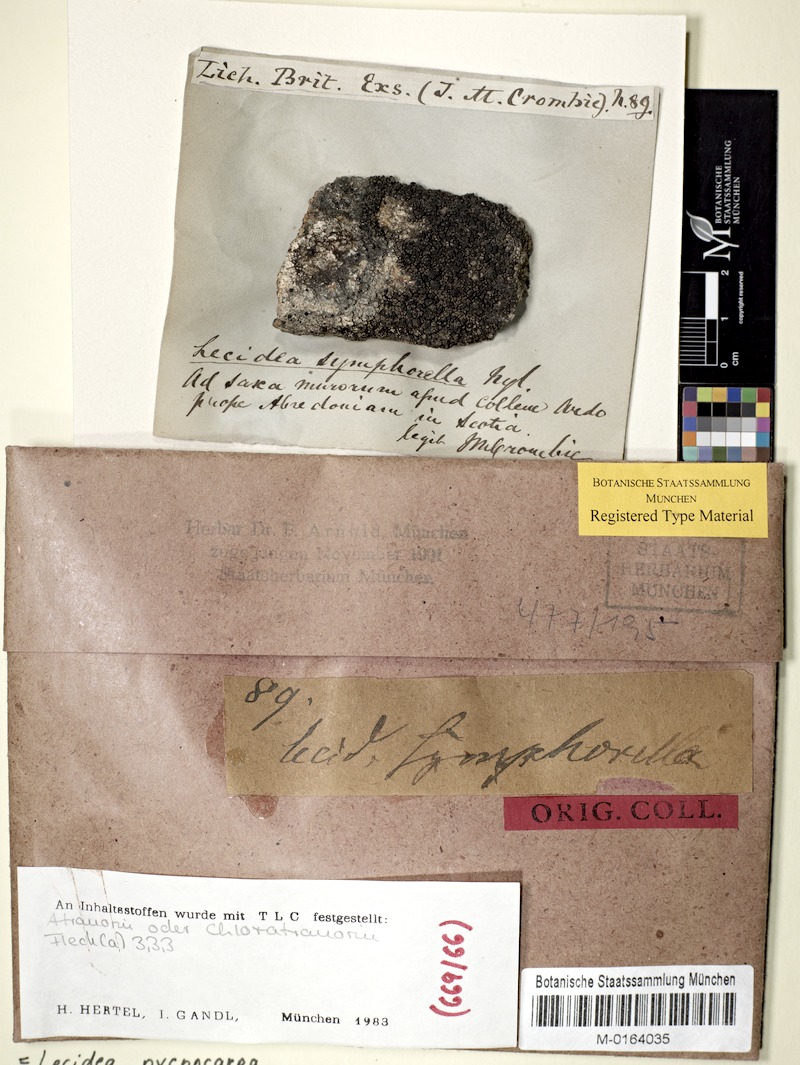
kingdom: Fungi
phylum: Ascomycota
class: Lecanoromycetes
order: Lecanorales
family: Lecanoraceae
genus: Miriquidica
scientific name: Miriquidica pycnocarpa
